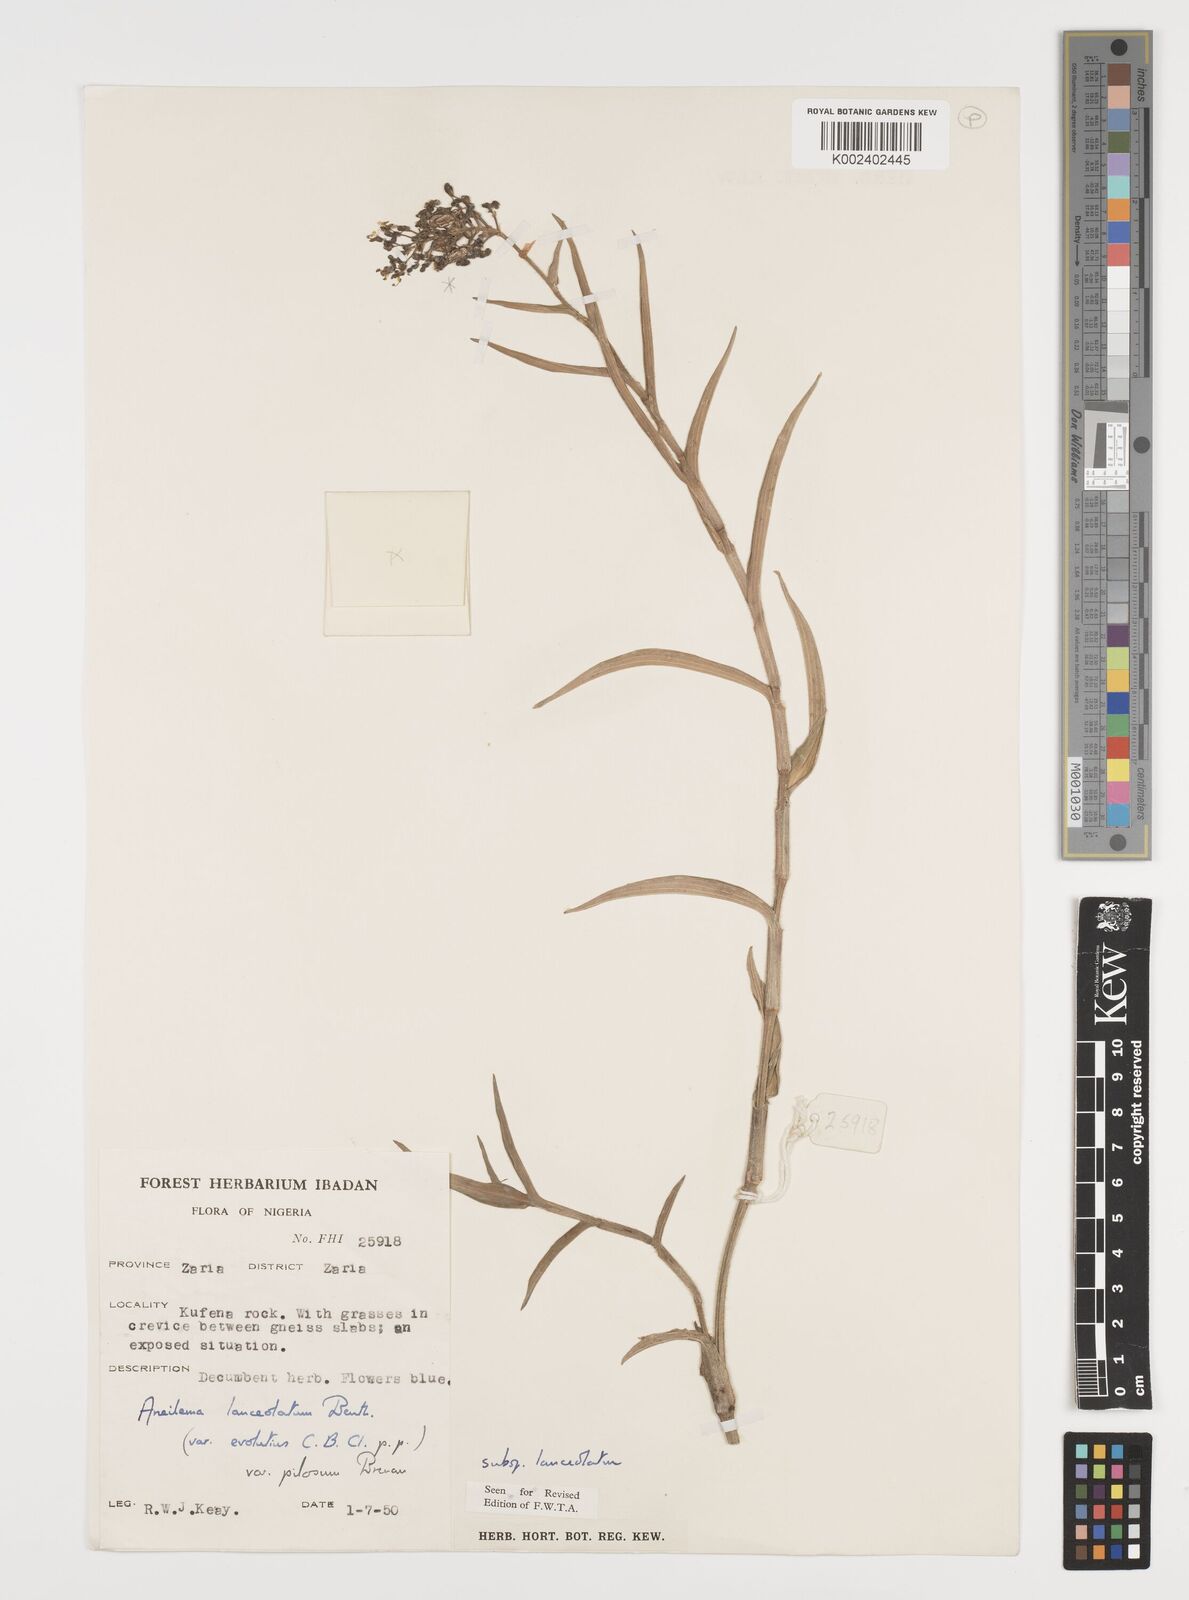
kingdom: Plantae
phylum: Tracheophyta
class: Liliopsida
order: Commelinales
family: Commelinaceae
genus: Aneilema
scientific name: Aneilema lanceolatum
